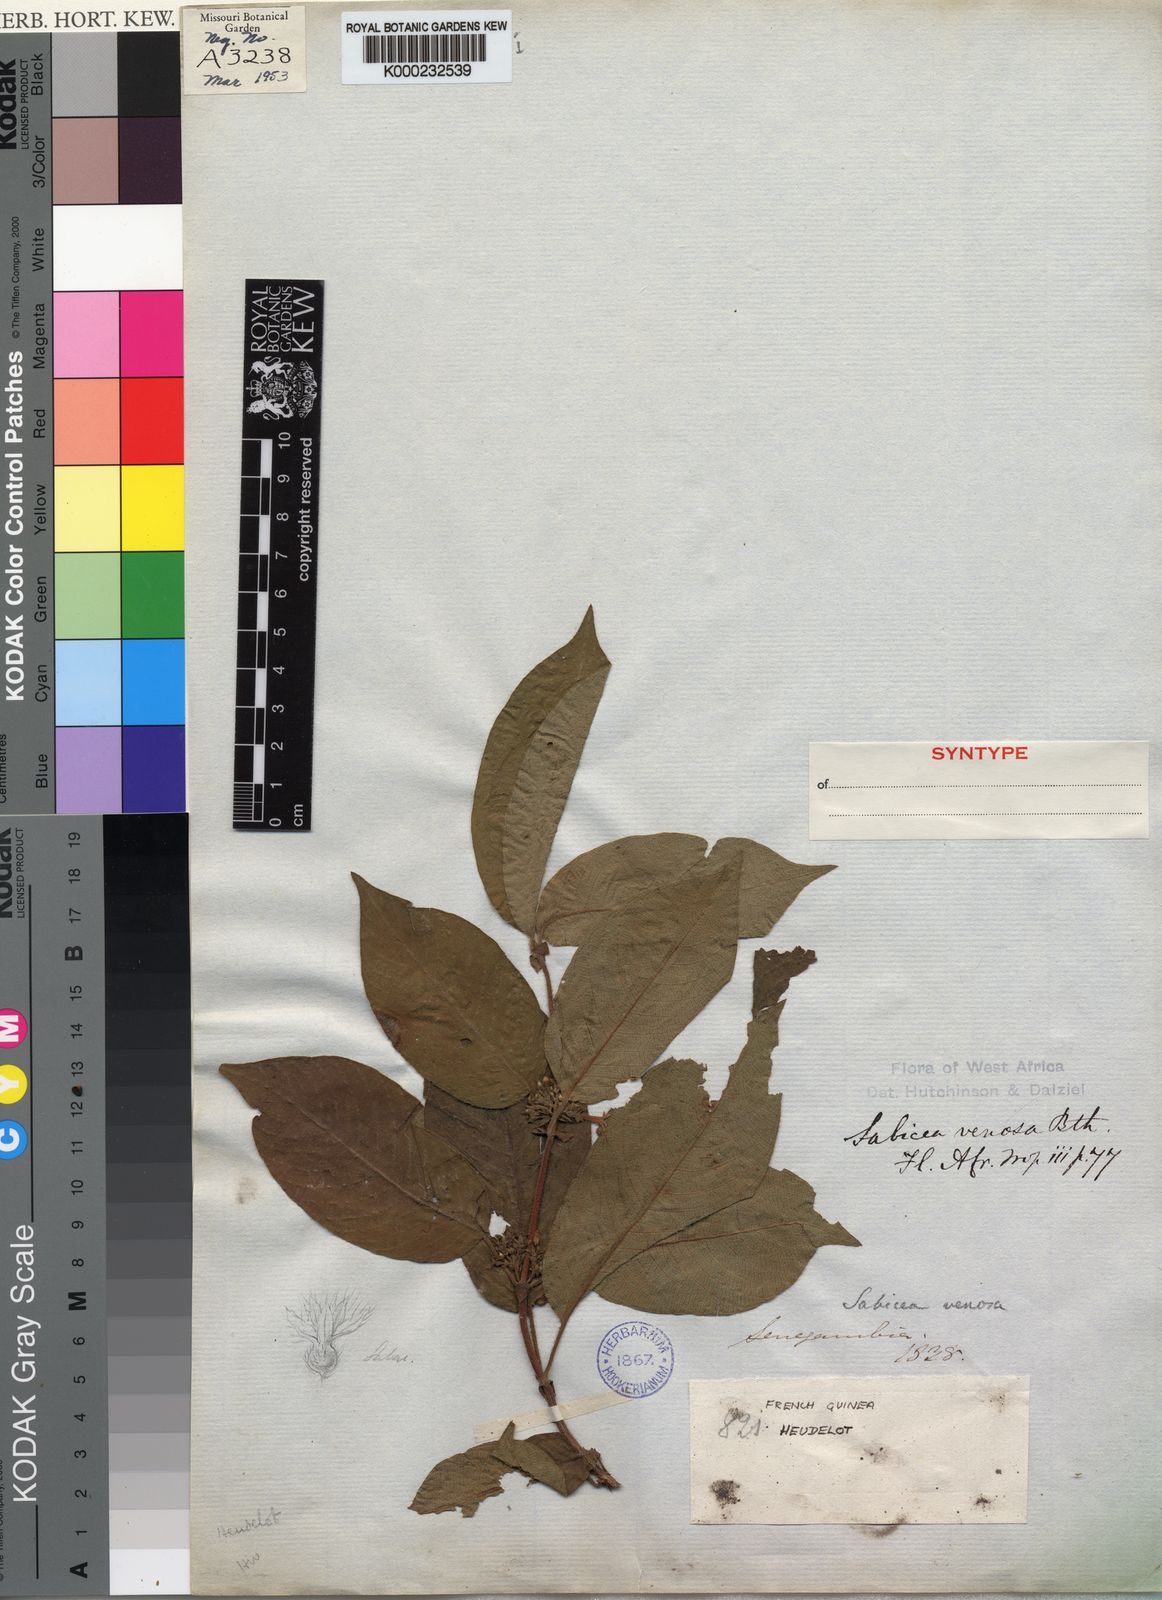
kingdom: Plantae
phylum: Tracheophyta
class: Magnoliopsida
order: Gentianales
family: Rubiaceae
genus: Sabicea
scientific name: Sabicea venosa
